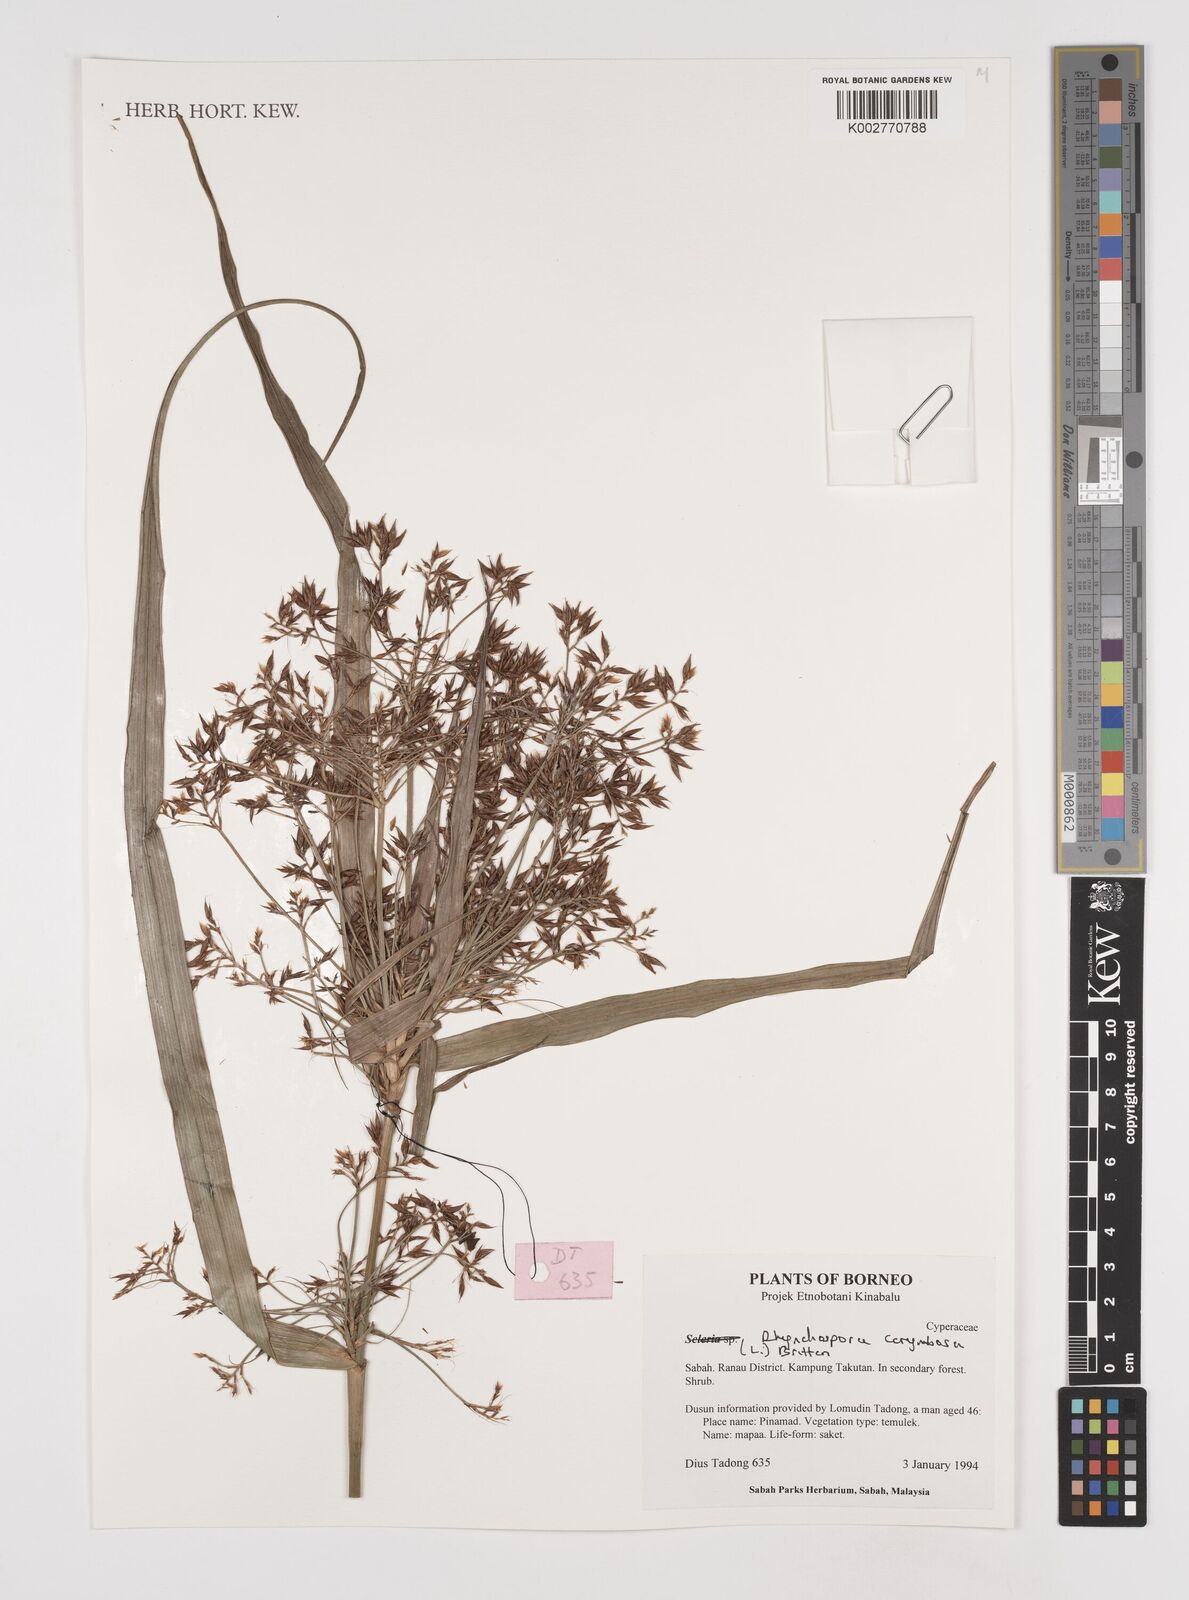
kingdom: Plantae
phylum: Tracheophyta
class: Liliopsida
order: Poales
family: Cyperaceae
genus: Rhynchospora
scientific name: Rhynchospora corymbosa
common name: Golden beak sedge
